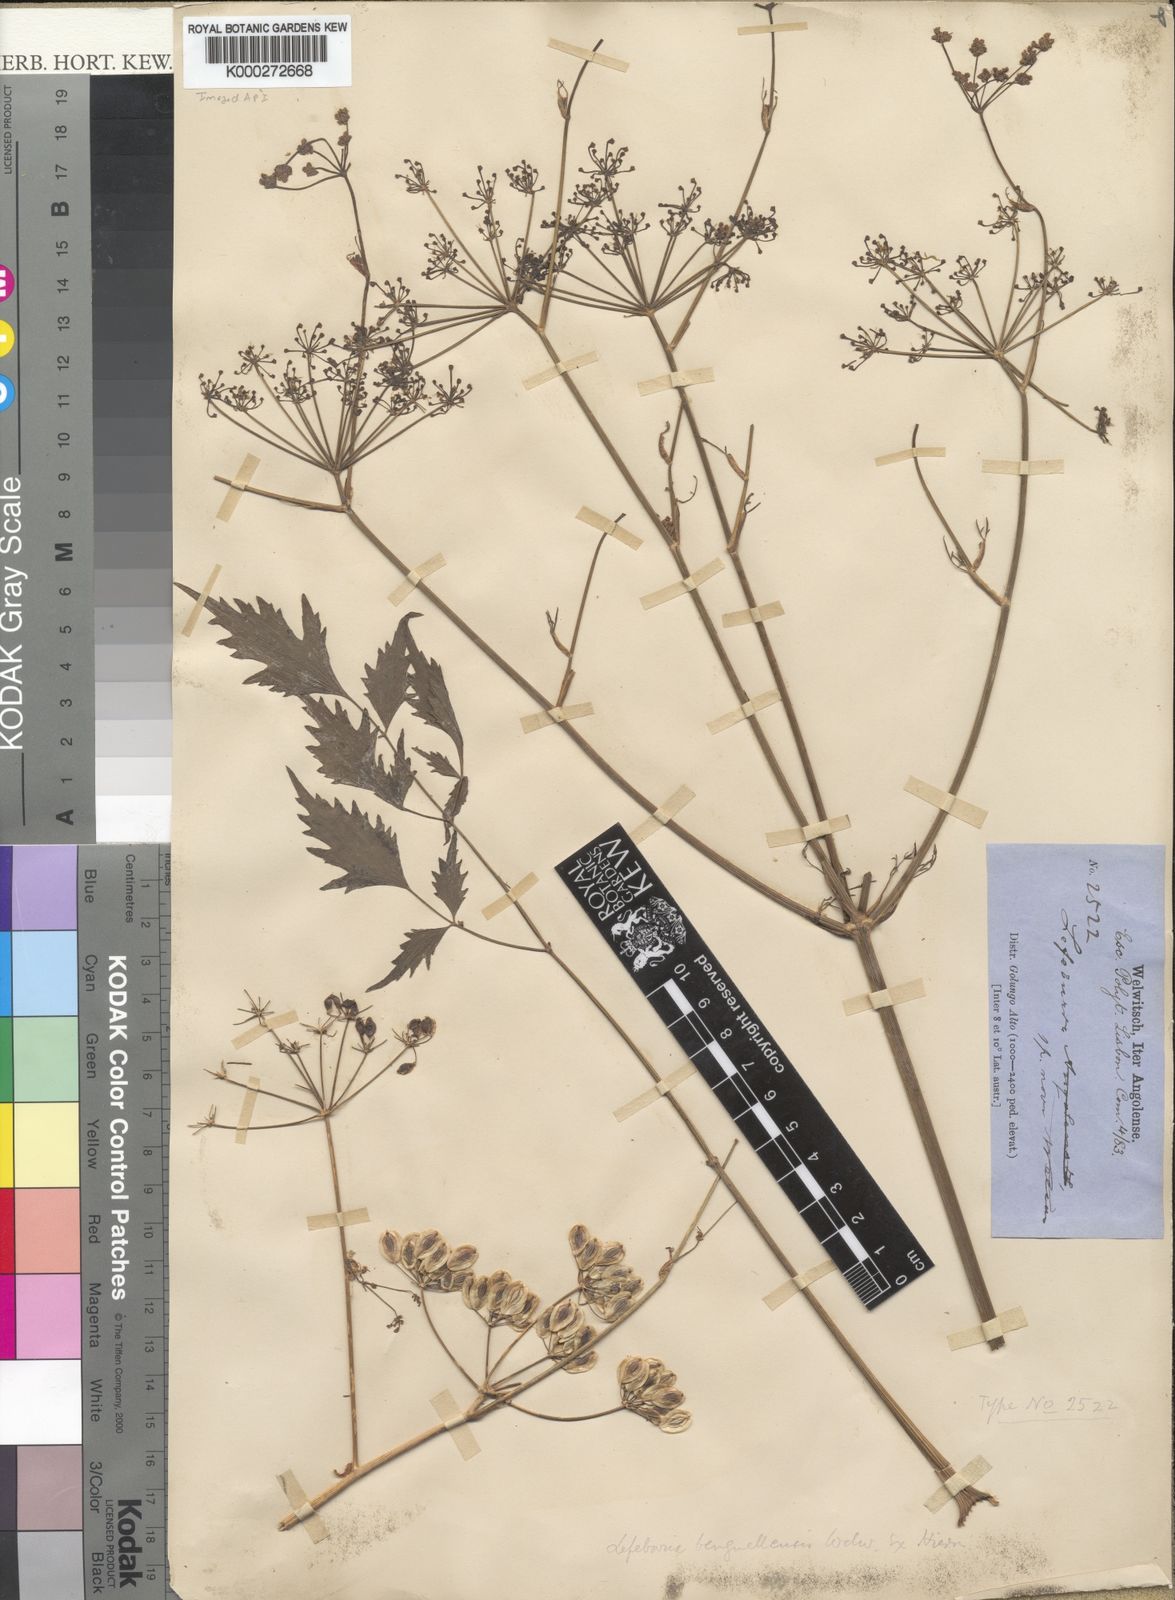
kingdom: Plantae
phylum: Tracheophyta
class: Magnoliopsida
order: Apiales
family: Apiaceae
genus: Lefebvrea
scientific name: Lefebvrea
